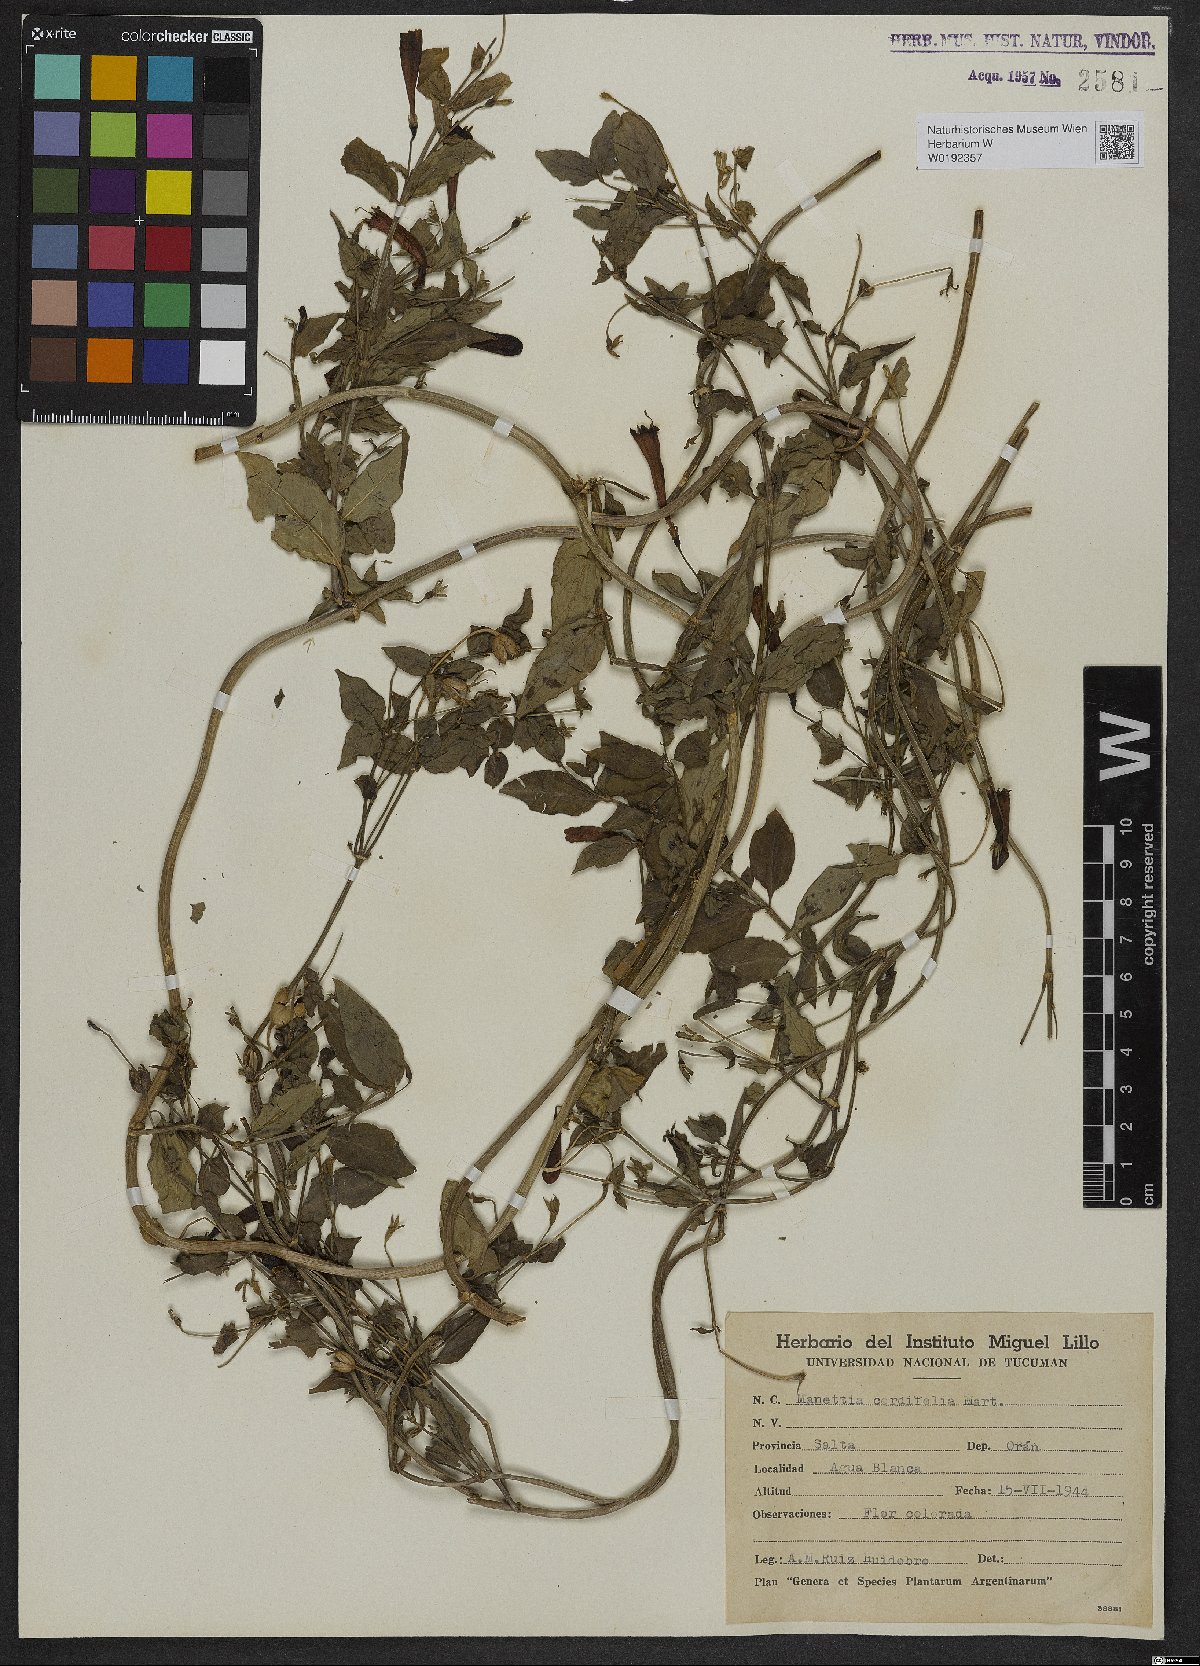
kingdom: Plantae
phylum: Tracheophyta
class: Magnoliopsida
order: Gentianales
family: Rubiaceae
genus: Manettia
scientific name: Manettia cordifolia
